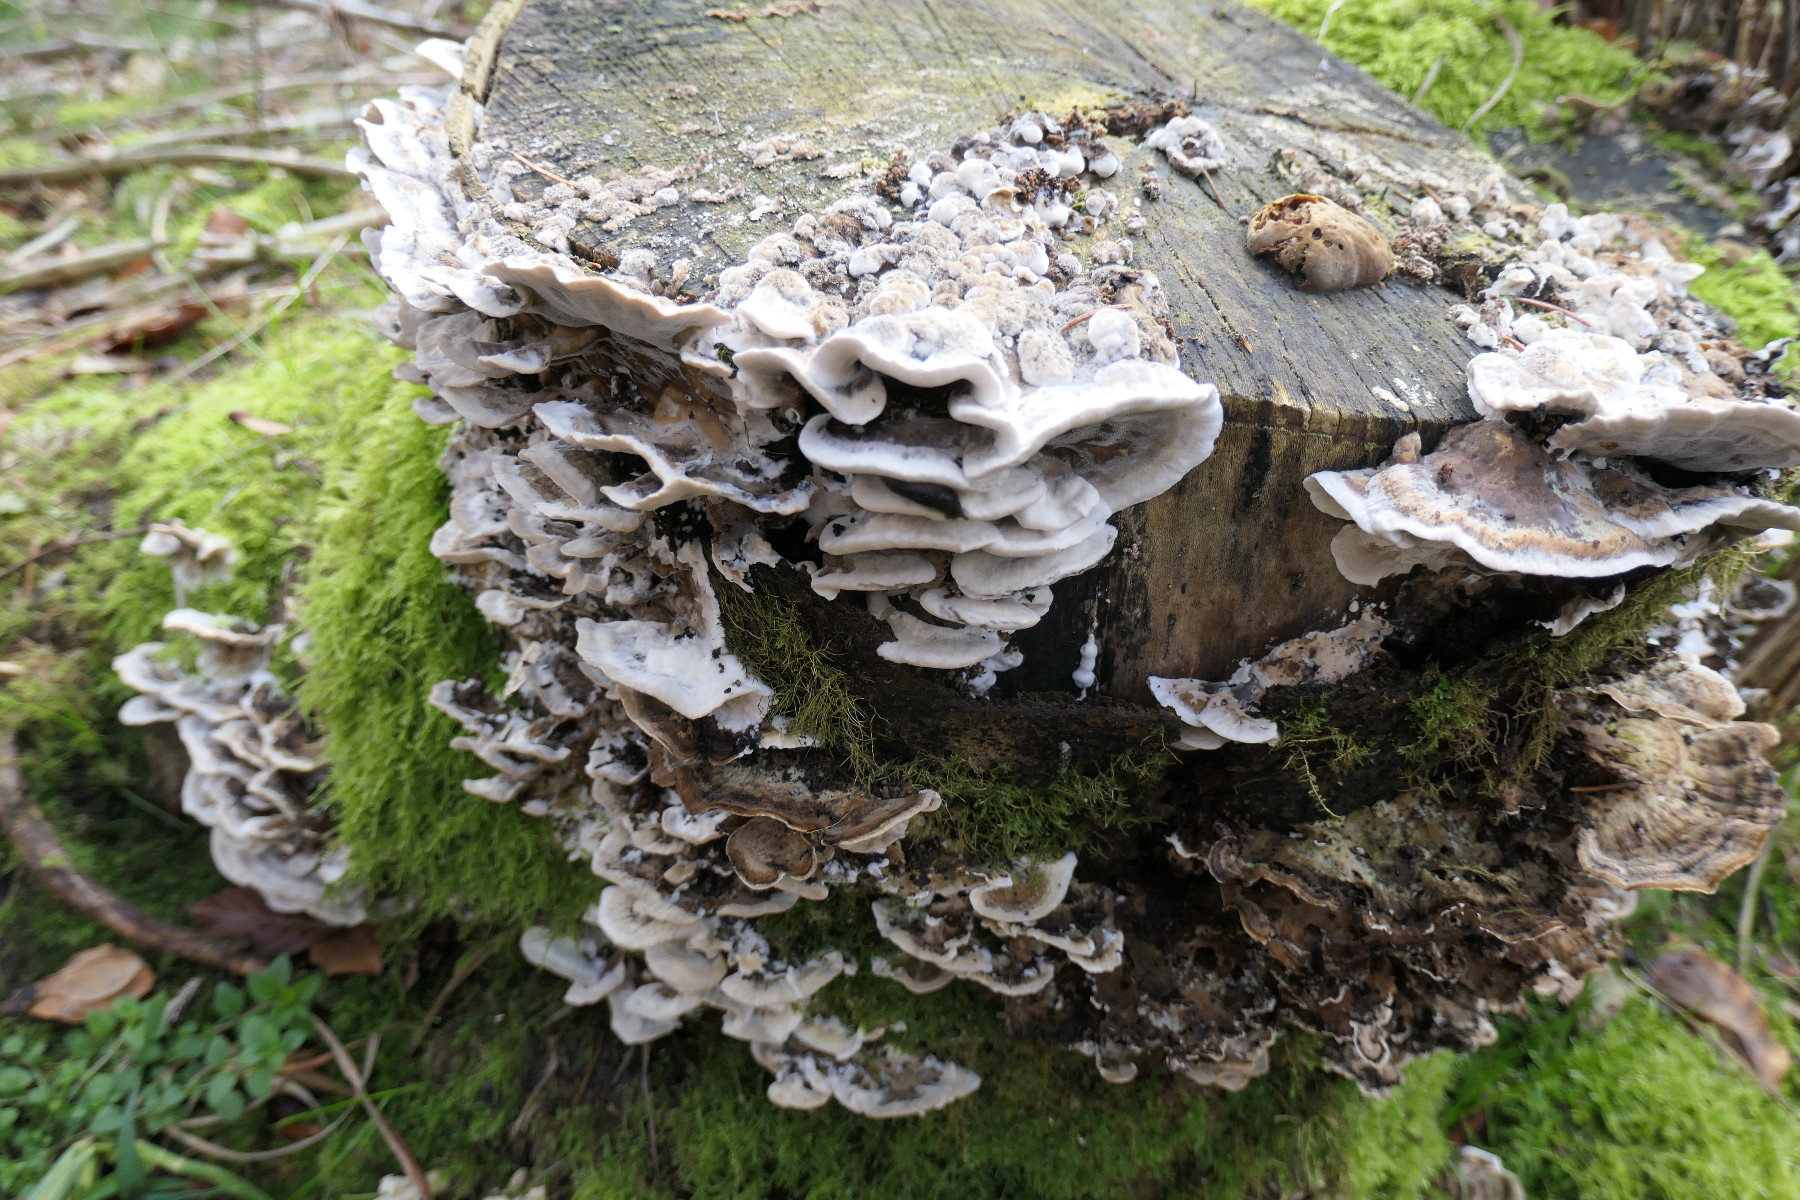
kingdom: Fungi
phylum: Basidiomycota
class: Agaricomycetes
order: Polyporales
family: Phanerochaetaceae
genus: Bjerkandera
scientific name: Bjerkandera adusta
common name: sveden sodporesvamp
